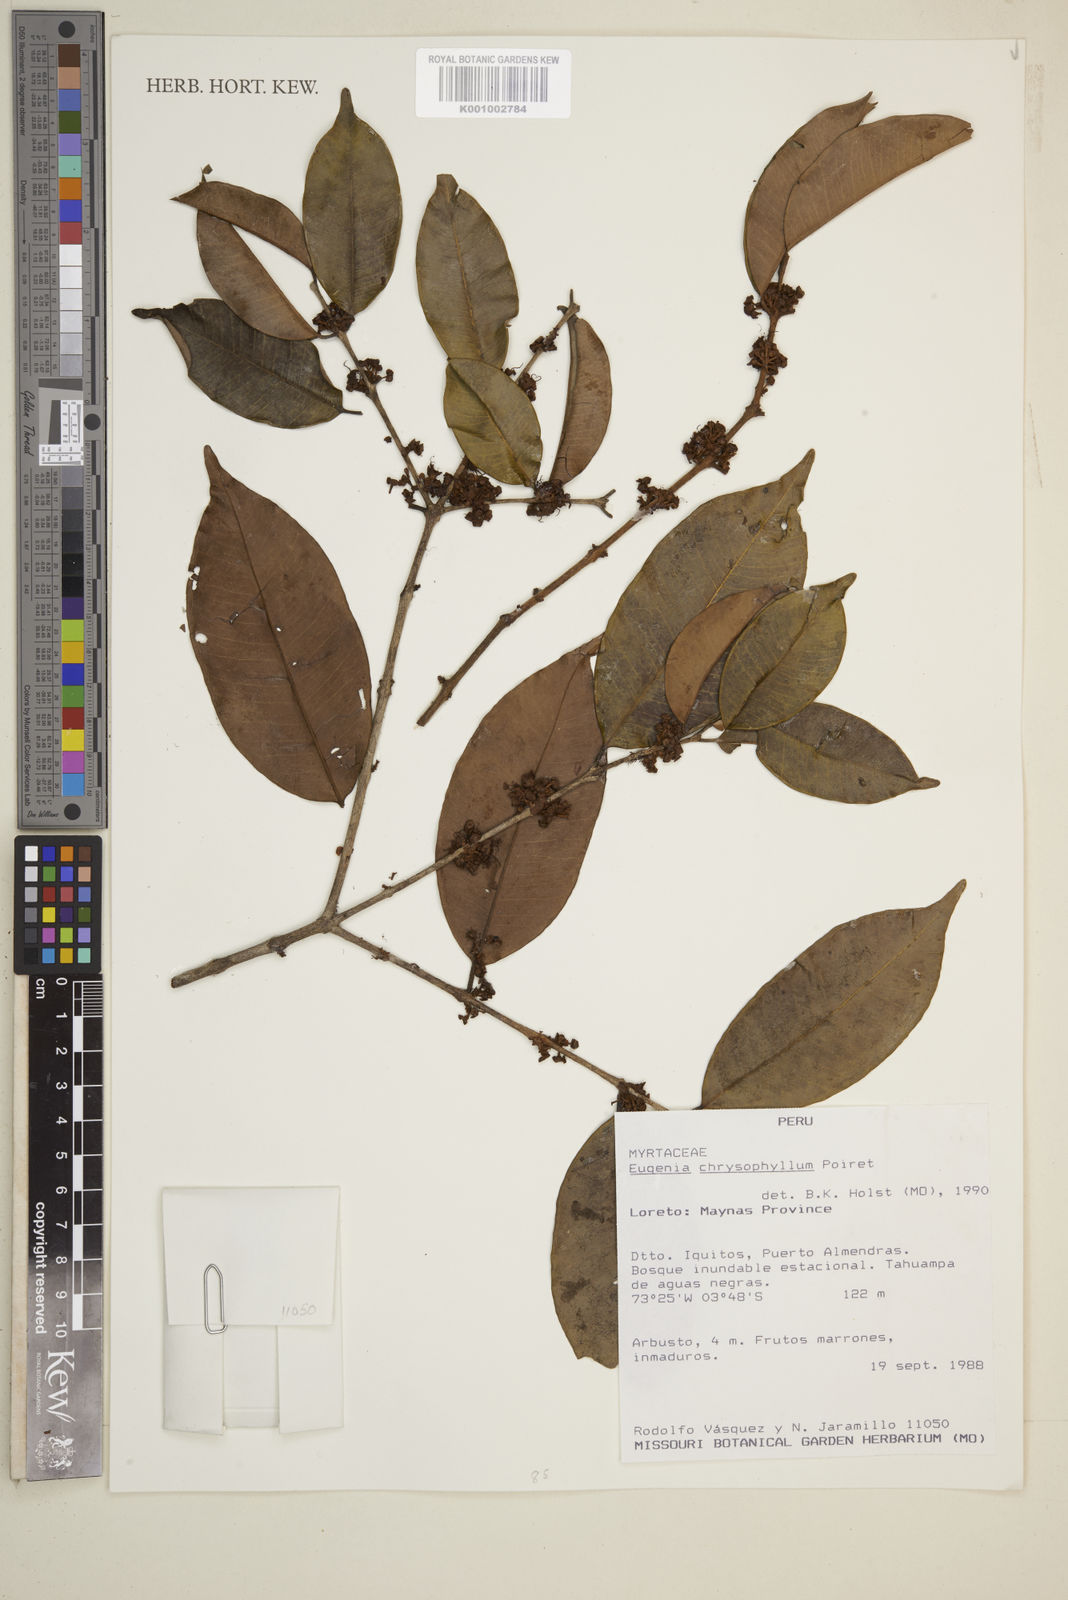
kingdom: Plantae
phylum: Tracheophyta
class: Magnoliopsida
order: Myrtales
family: Myrtaceae
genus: Eugenia
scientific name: Eugenia chrysophyllum
